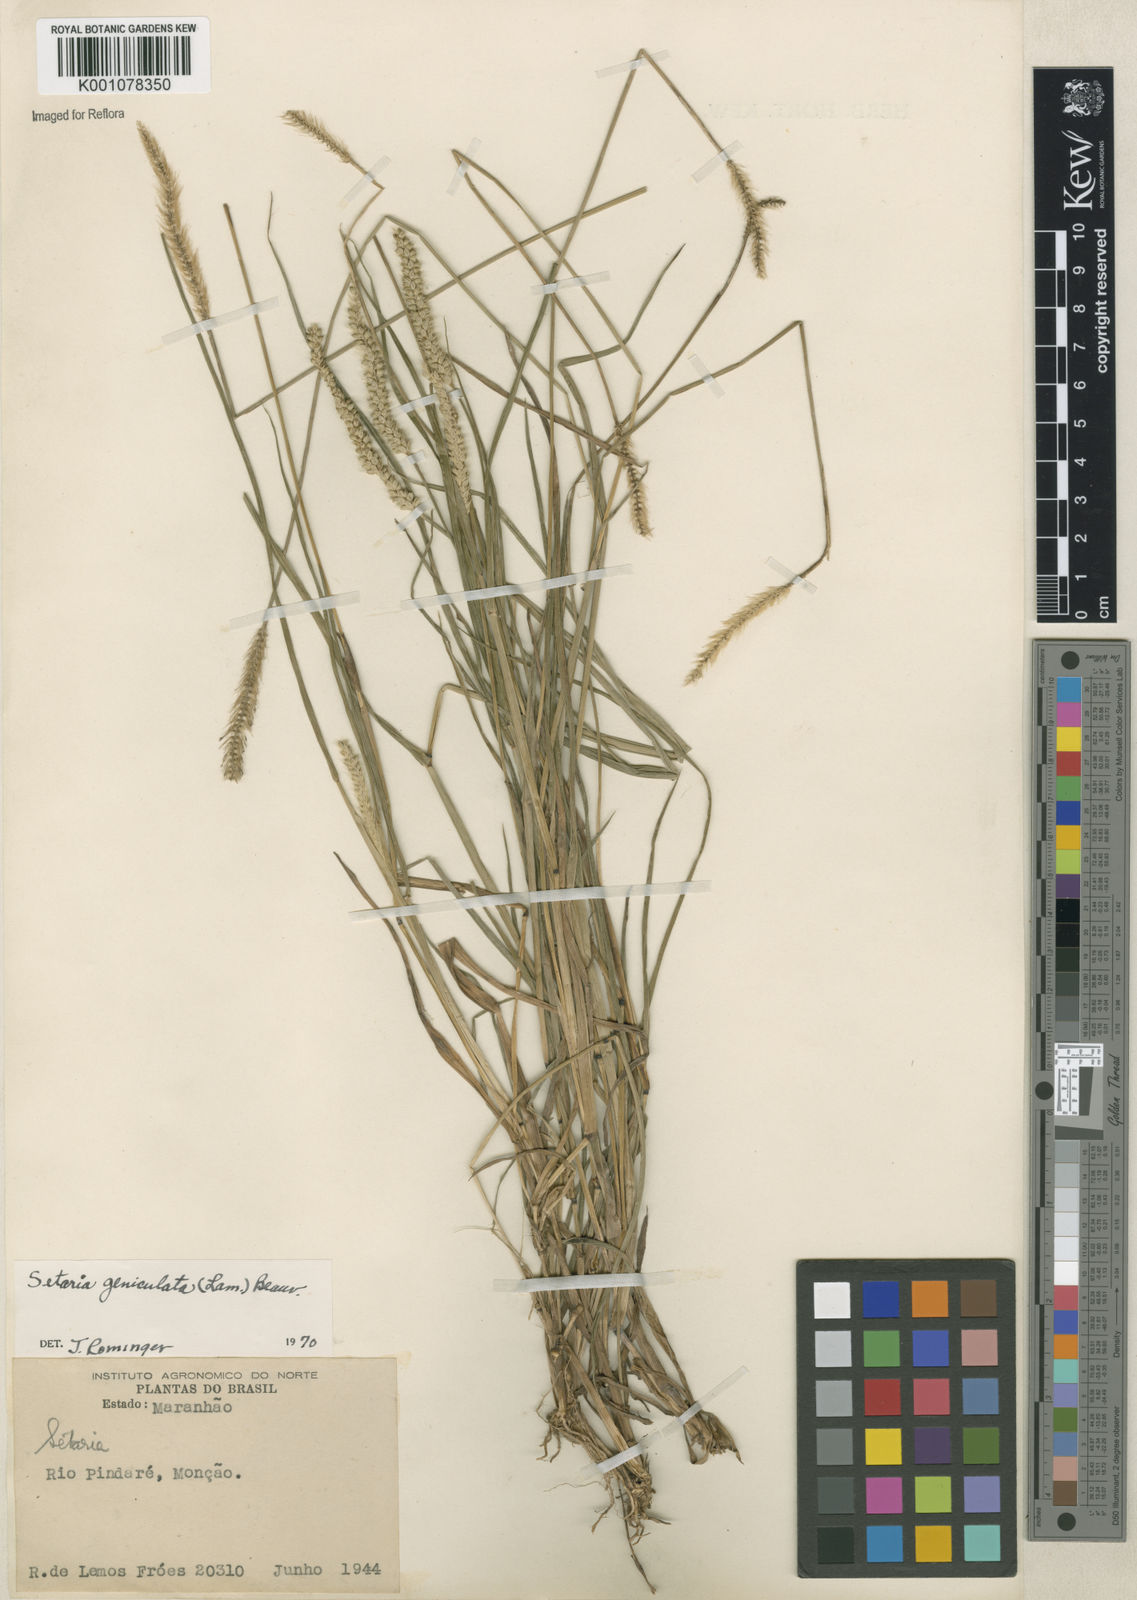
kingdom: Plantae
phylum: Tracheophyta
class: Liliopsida
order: Poales
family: Poaceae
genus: Setaria
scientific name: Setaria parviflora
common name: Knotroot bristle-grass
